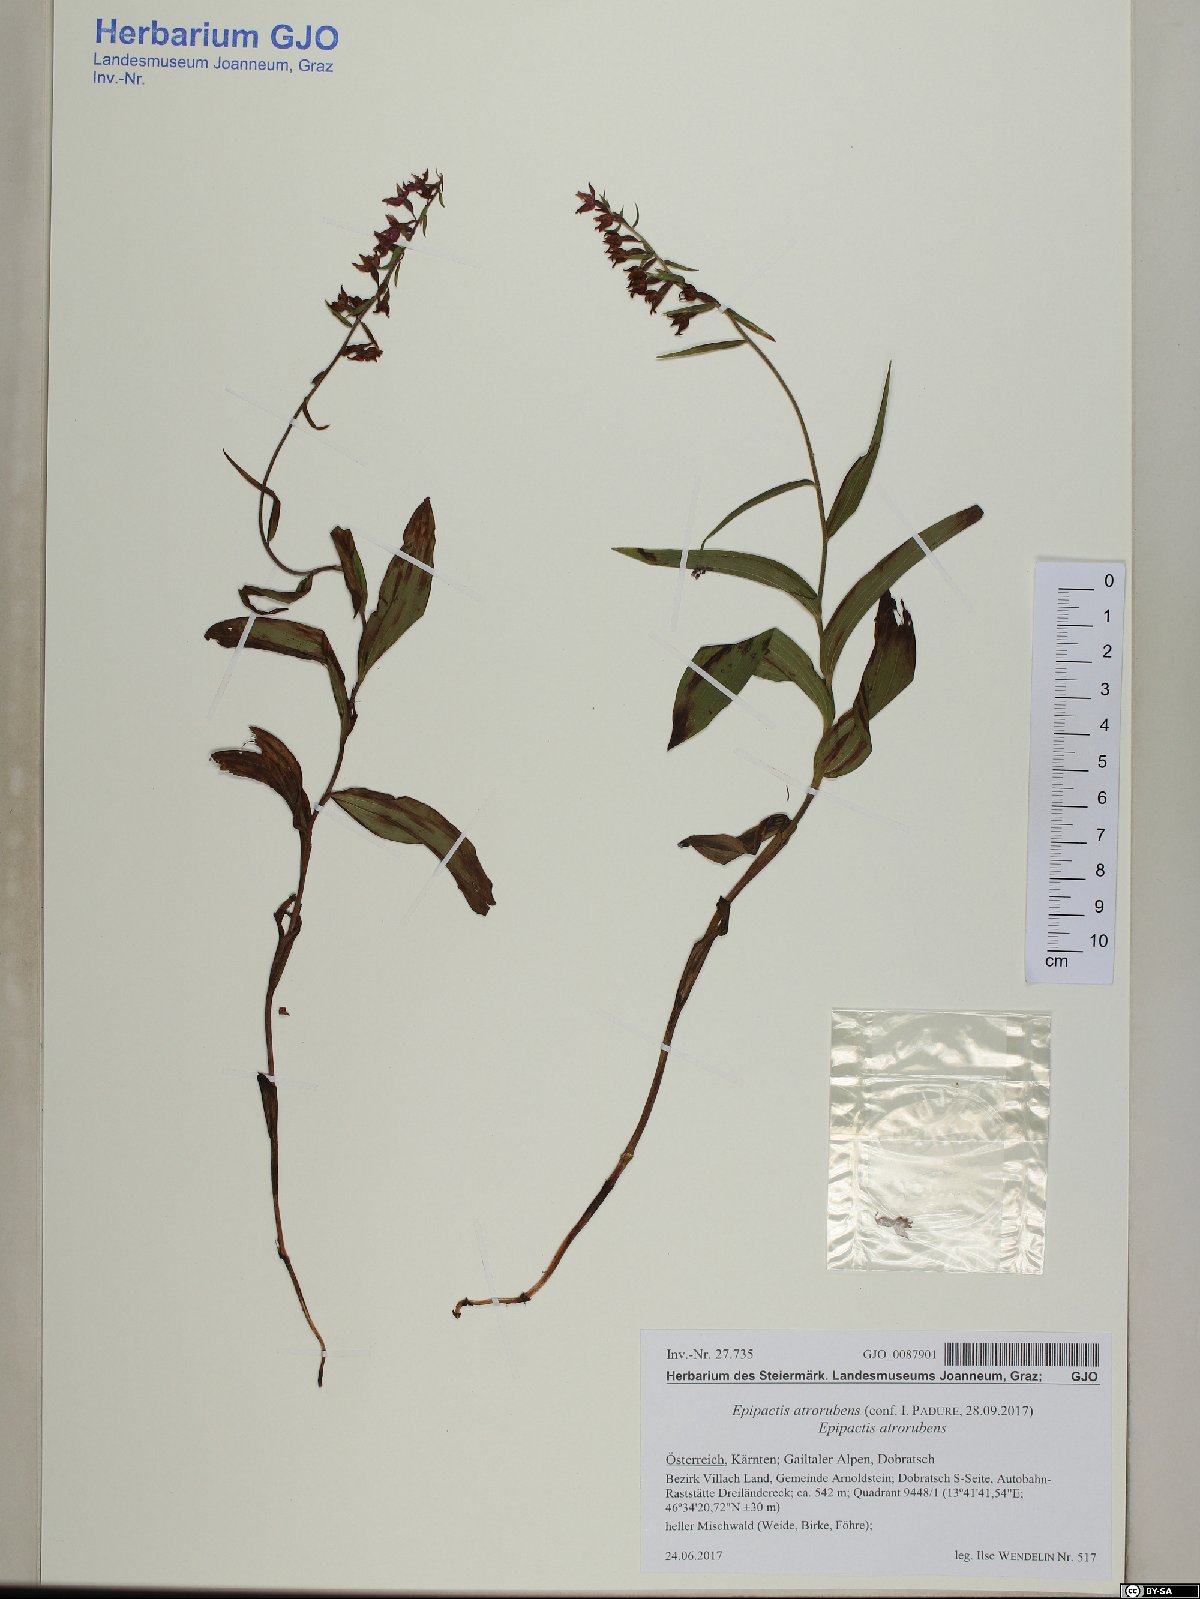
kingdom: Plantae
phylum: Tracheophyta
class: Liliopsida
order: Asparagales
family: Orchidaceae
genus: Epipactis
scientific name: Epipactis atrorubens
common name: Dark-red helleborine
